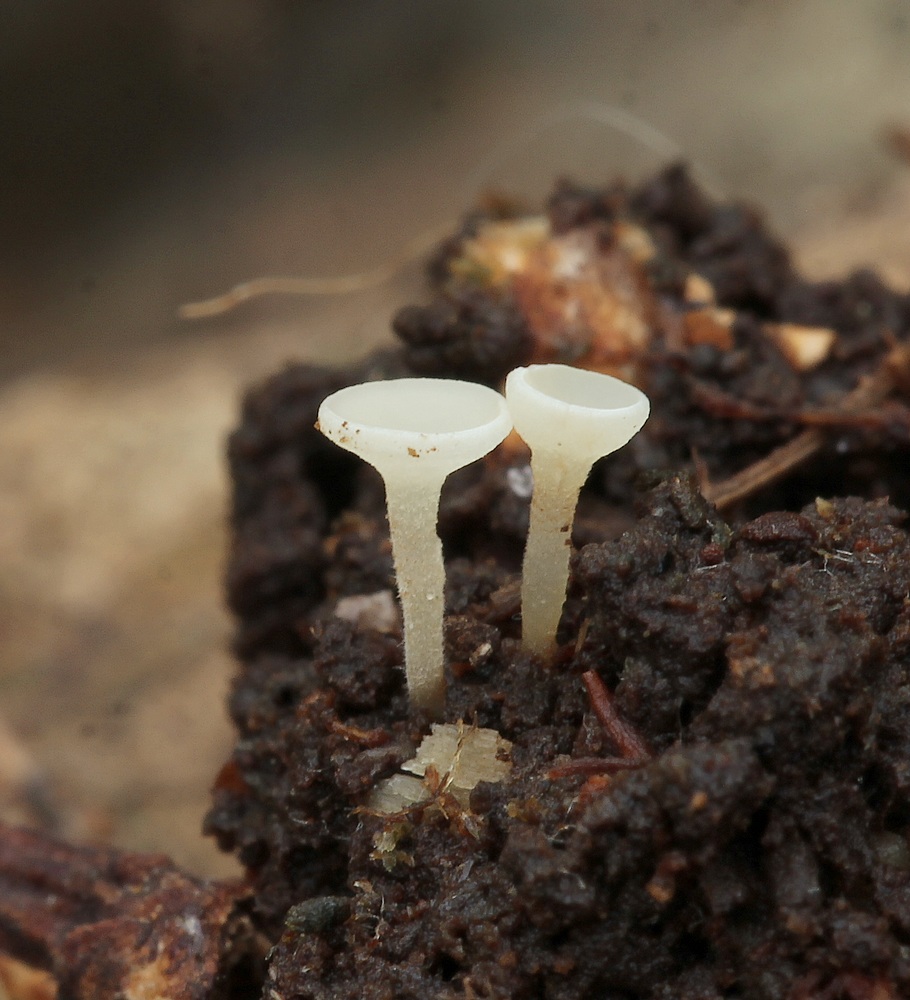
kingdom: Fungi
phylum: Ascomycota
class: Leotiomycetes
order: Helotiales
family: Helotiaceae
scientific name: Helotiaceae
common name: stilkskivefamilien
